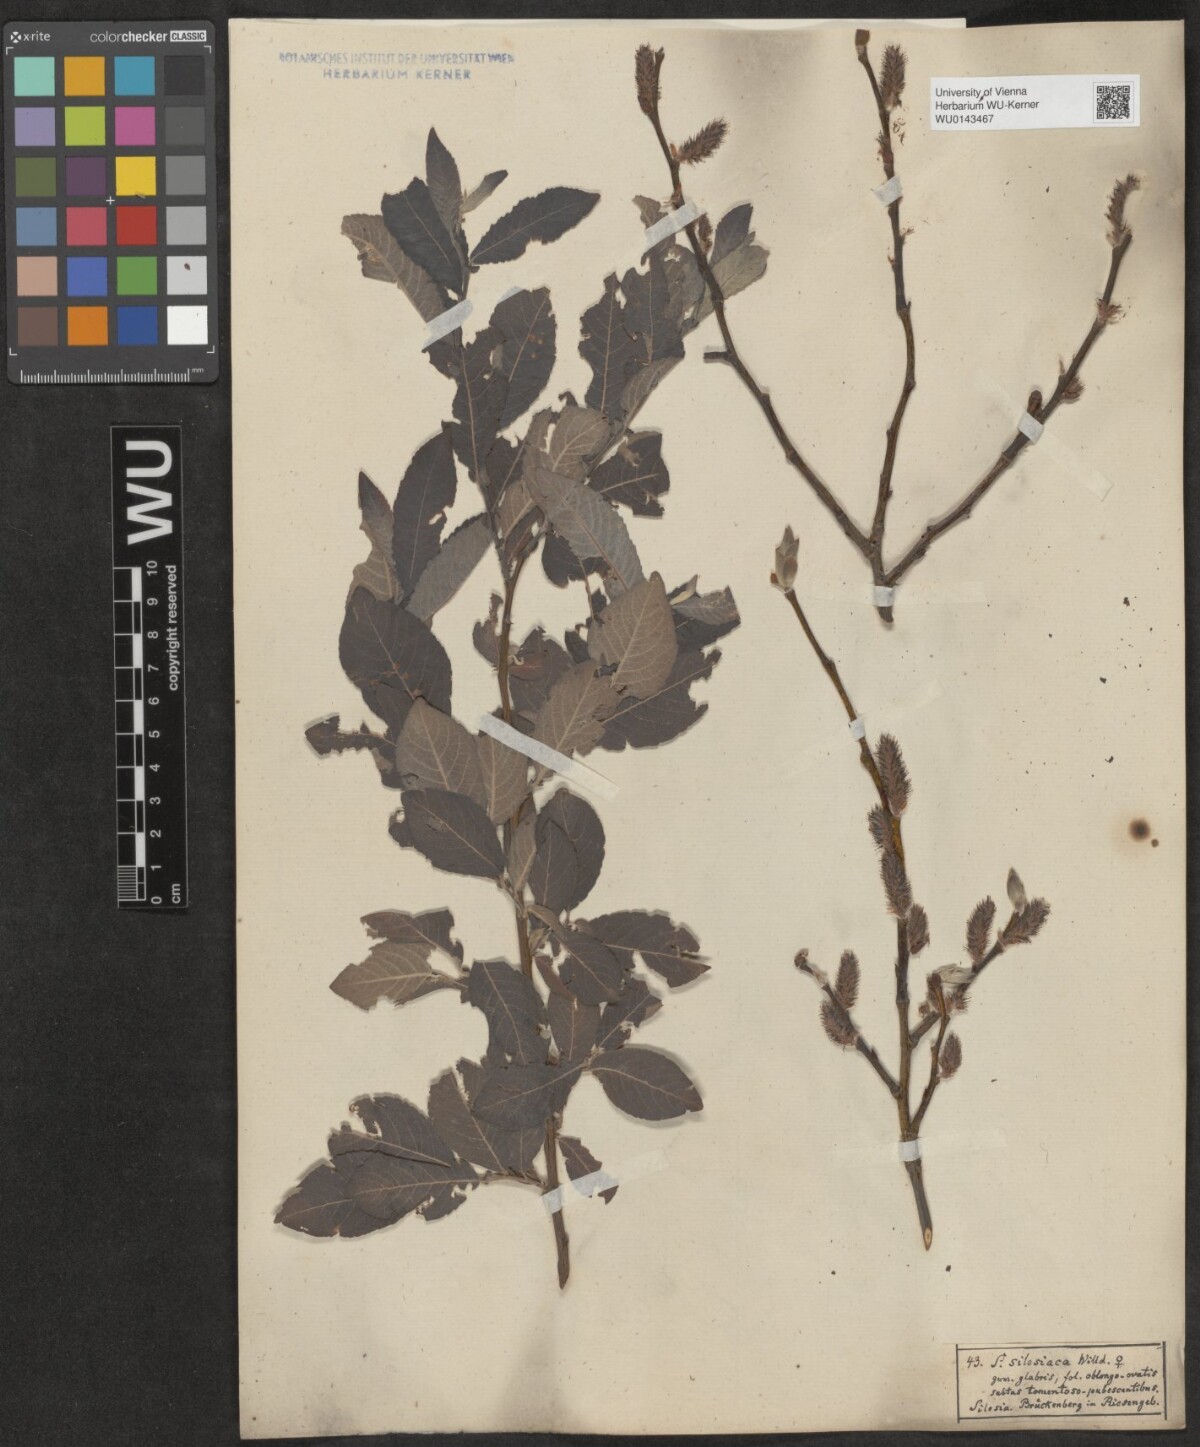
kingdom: Plantae
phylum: Tracheophyta
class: Magnoliopsida
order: Malpighiales
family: Salicaceae
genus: Salix
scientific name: Salix silesiaca
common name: Silesian willow
